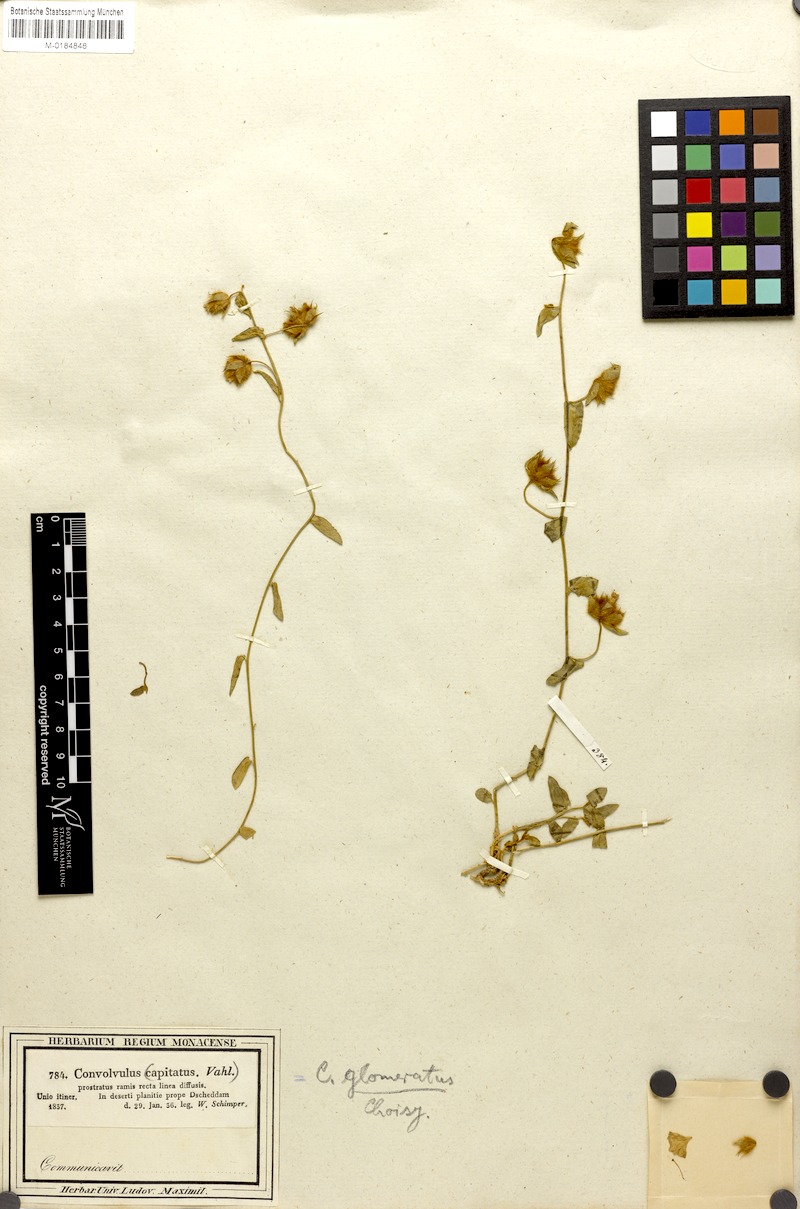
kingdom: Plantae
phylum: Tracheophyta
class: Magnoliopsida
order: Solanales
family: Convolvulaceae
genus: Convolvulus
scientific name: Convolvulus glomeratus
